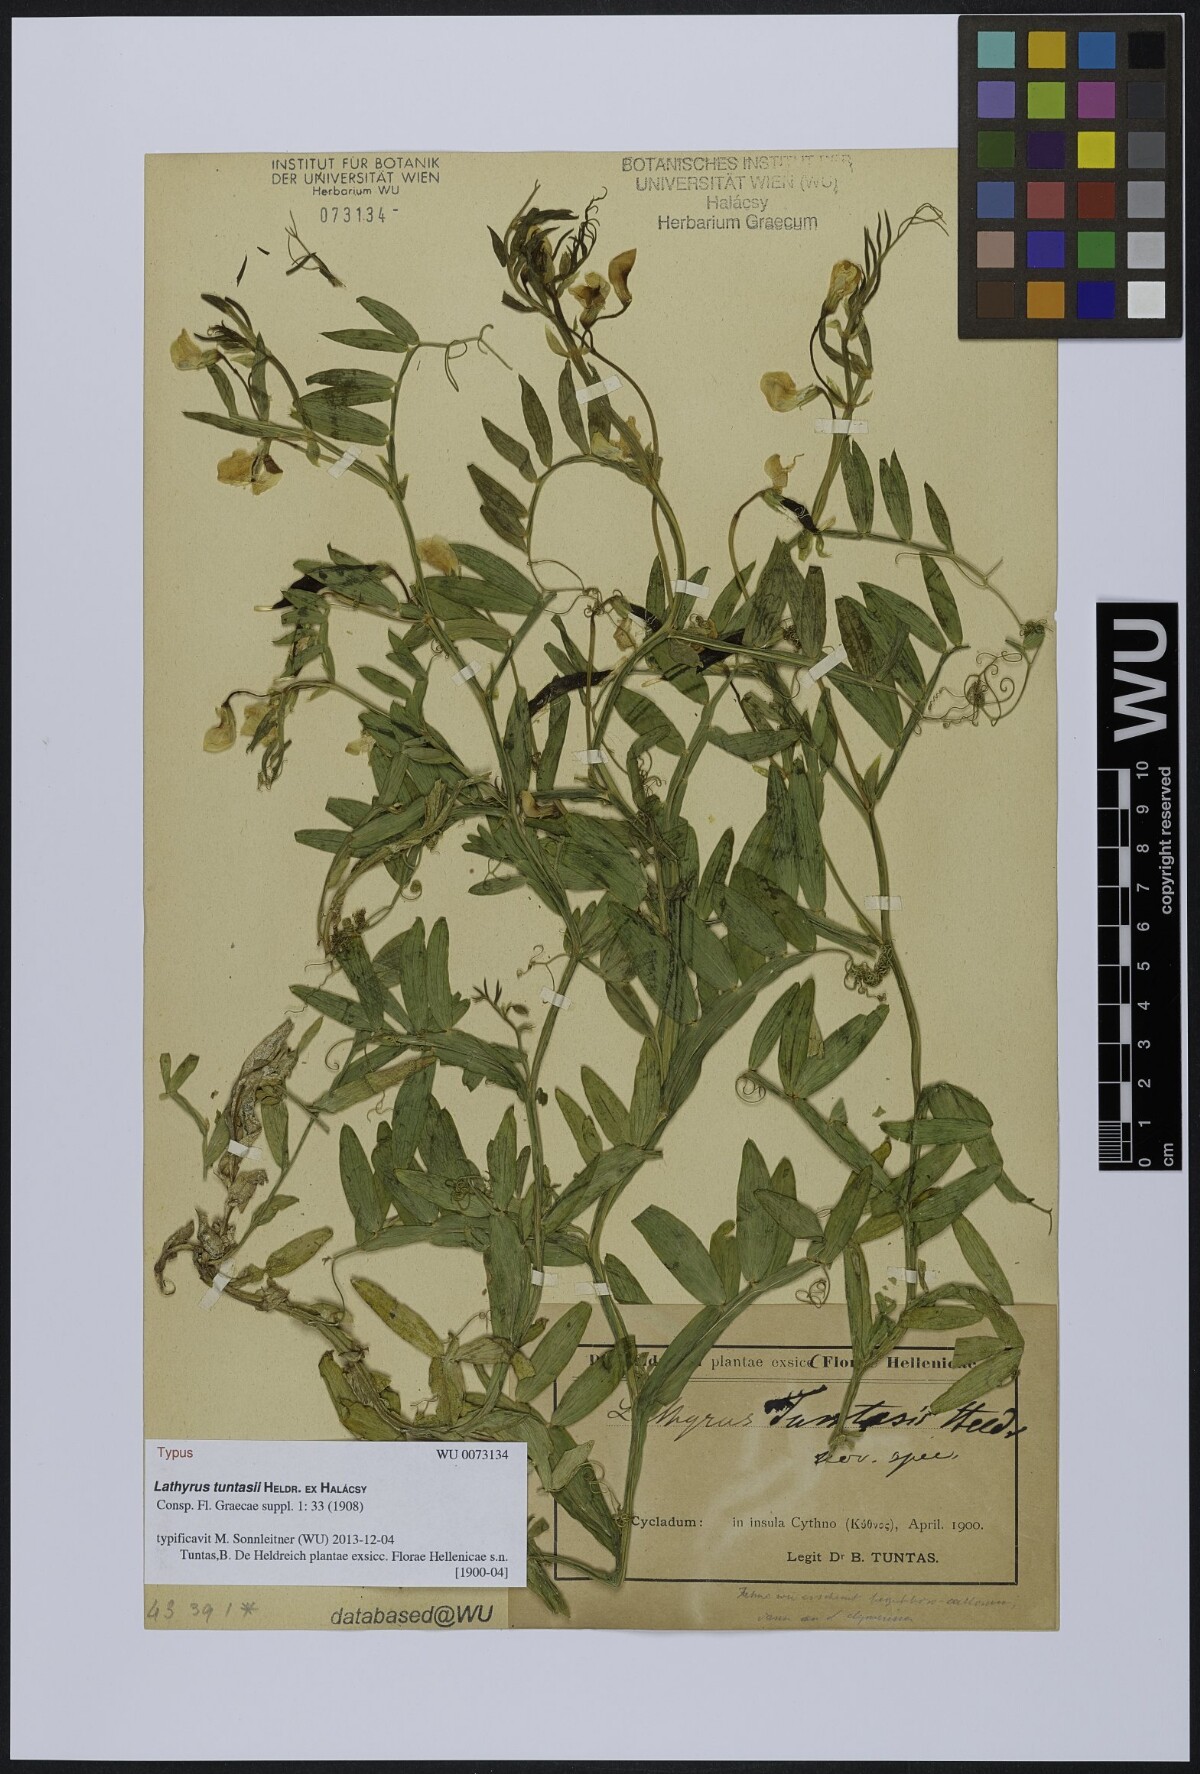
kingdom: Plantae
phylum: Tracheophyta
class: Magnoliopsida
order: Fabales
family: Fabaceae
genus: Lathyrus
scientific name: Lathyrus clymenum
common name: Spanish vetchling
